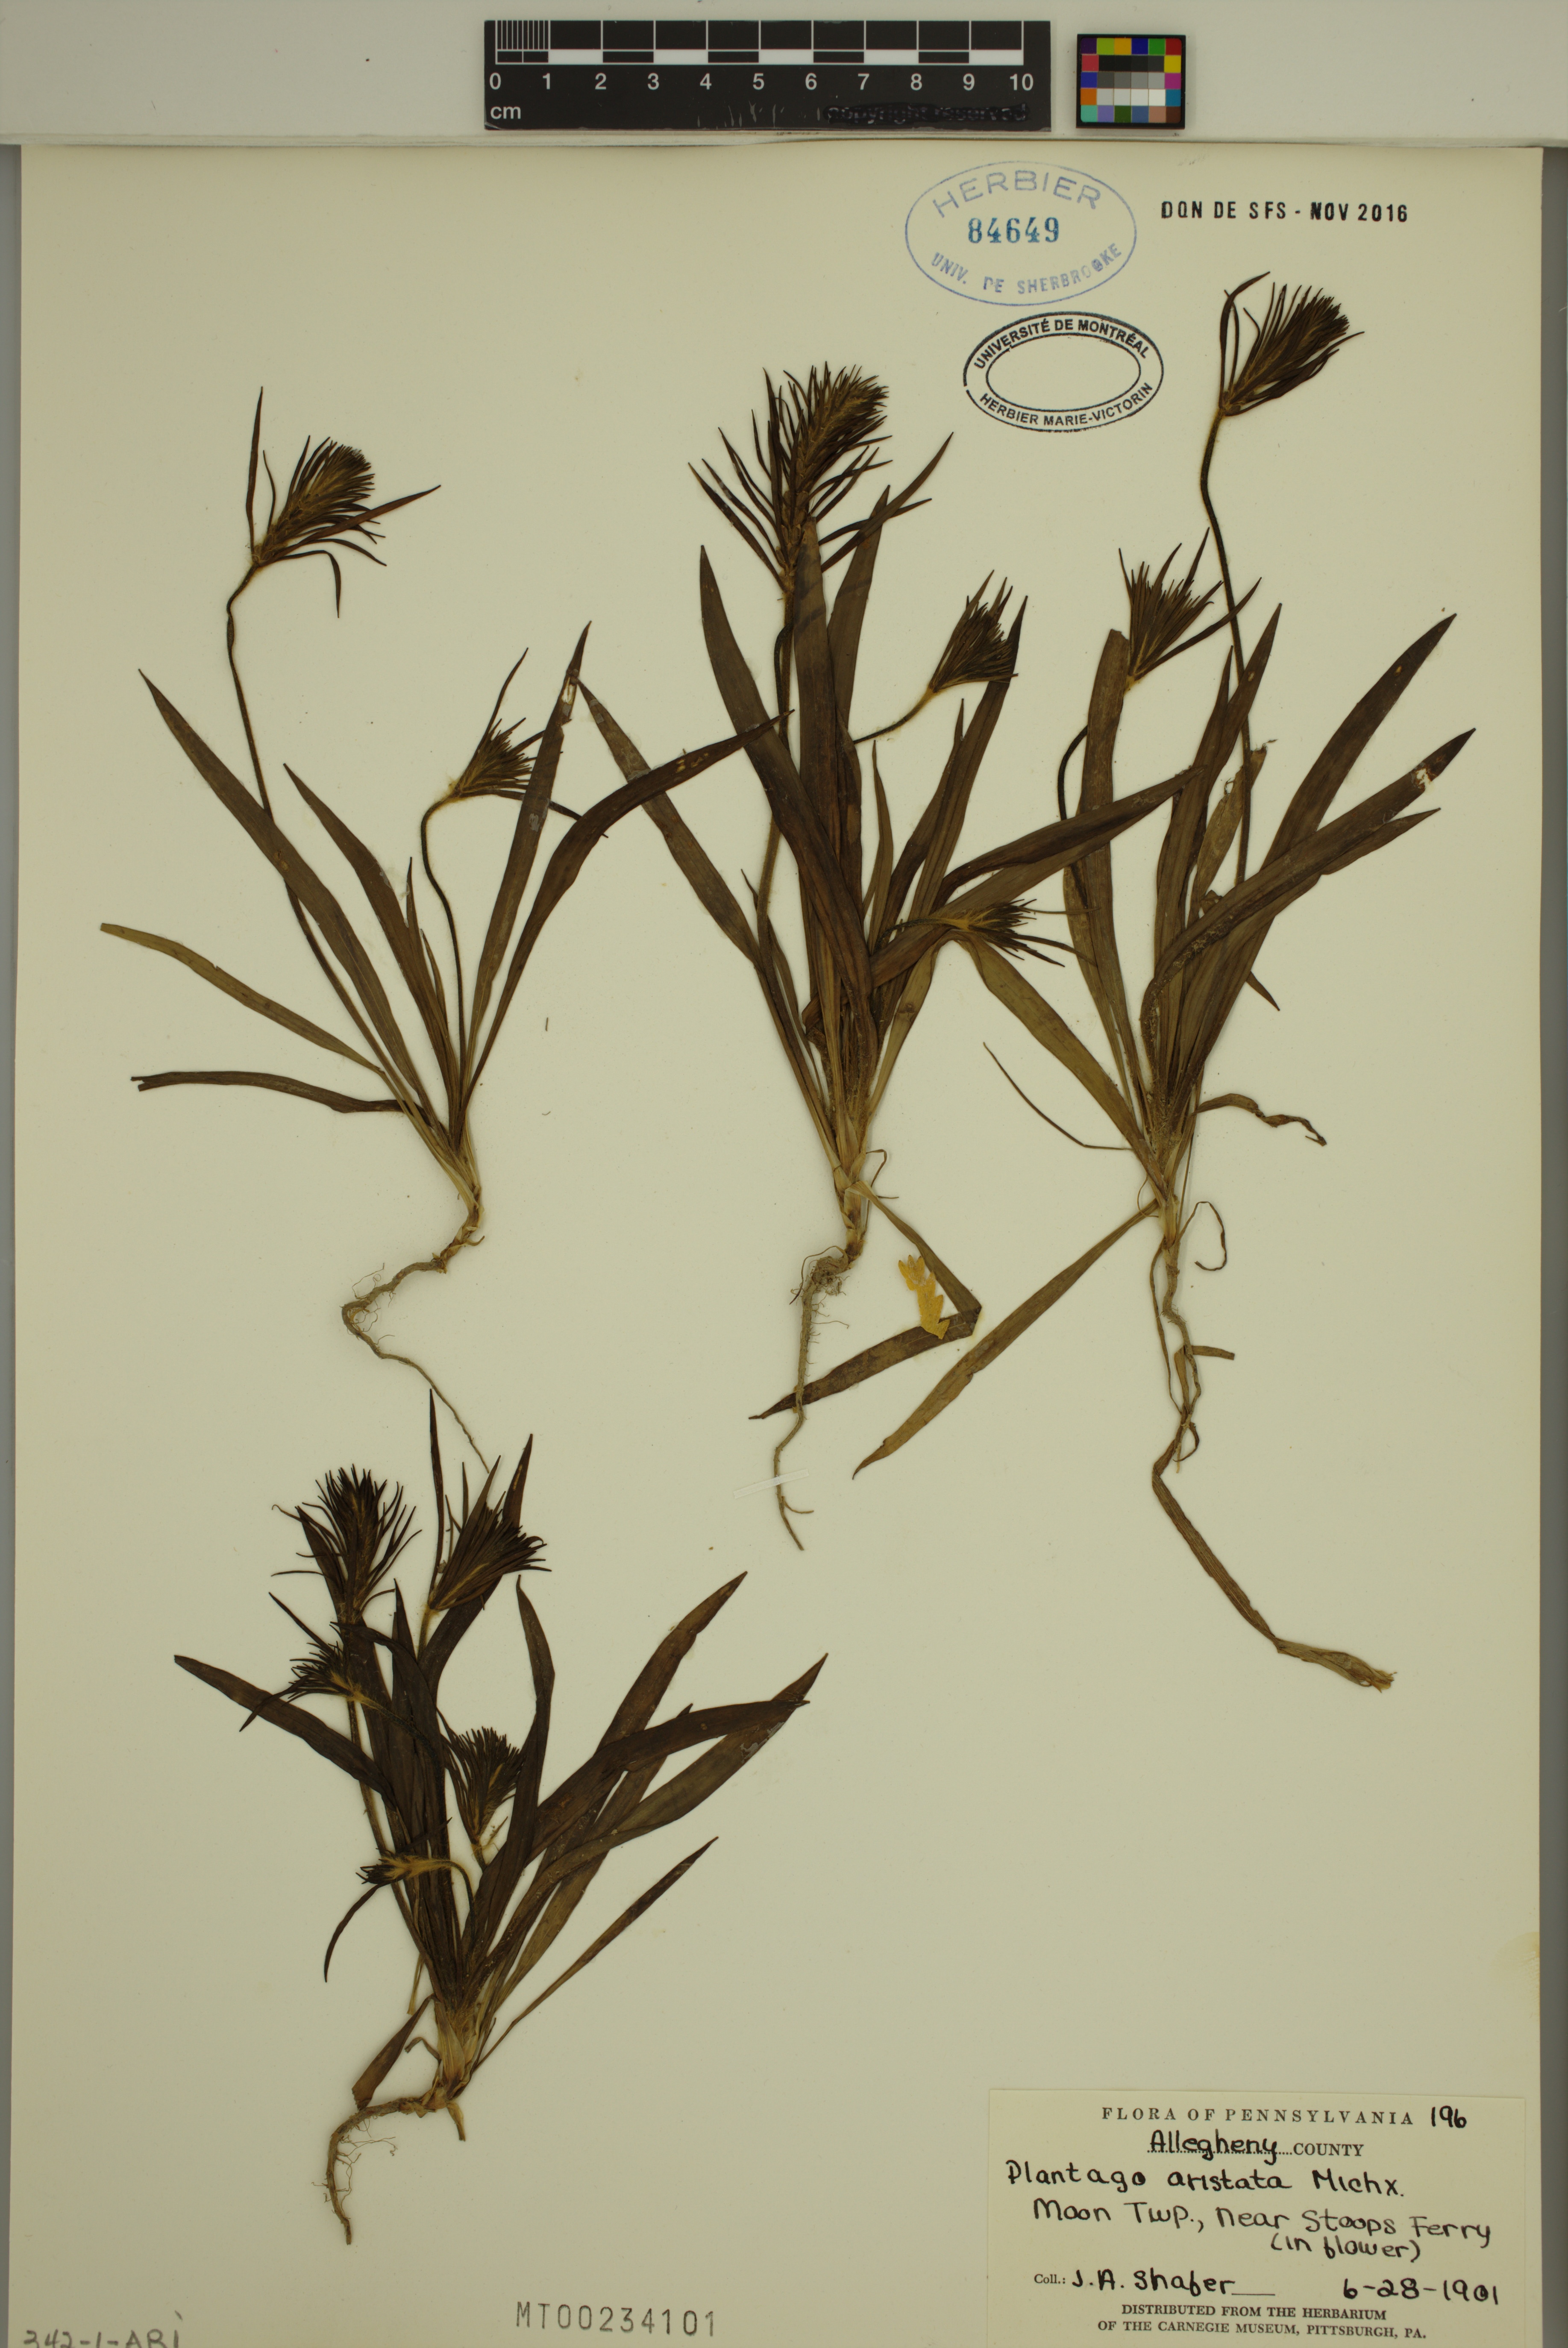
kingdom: Plantae
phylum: Tracheophyta
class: Magnoliopsida
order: Lamiales
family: Plantaginaceae
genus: Plantago
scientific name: Plantago aristata
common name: Bracted plantain
